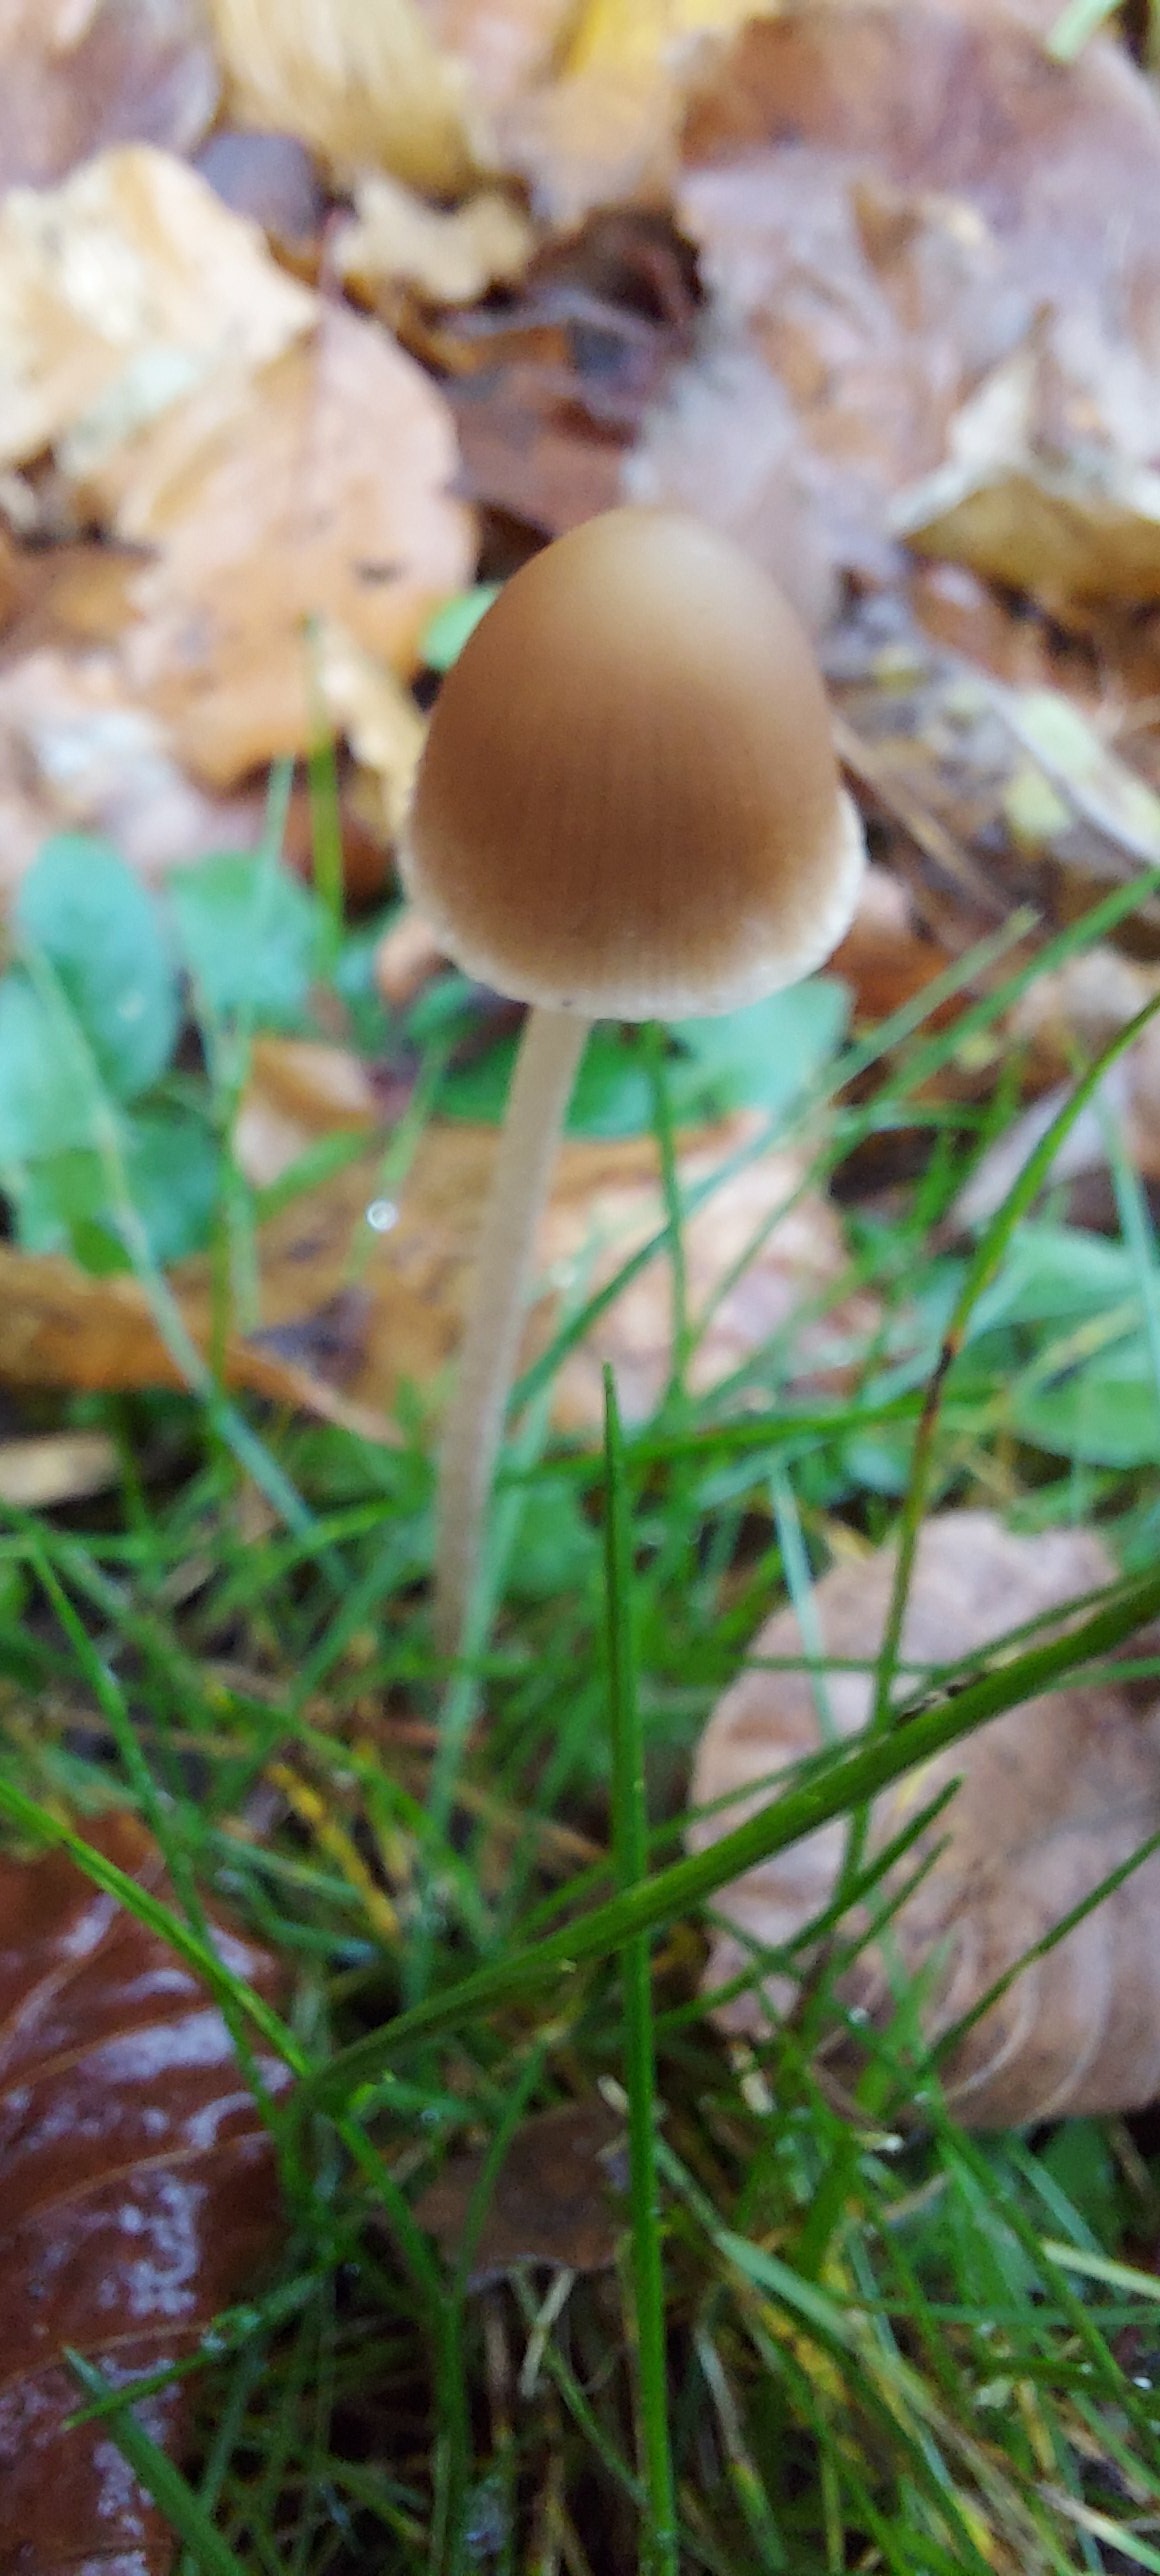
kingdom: Fungi
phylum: Basidiomycota
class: Agaricomycetes
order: Agaricales
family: Psathyrellaceae
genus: Psathyrella
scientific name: Psathyrella
